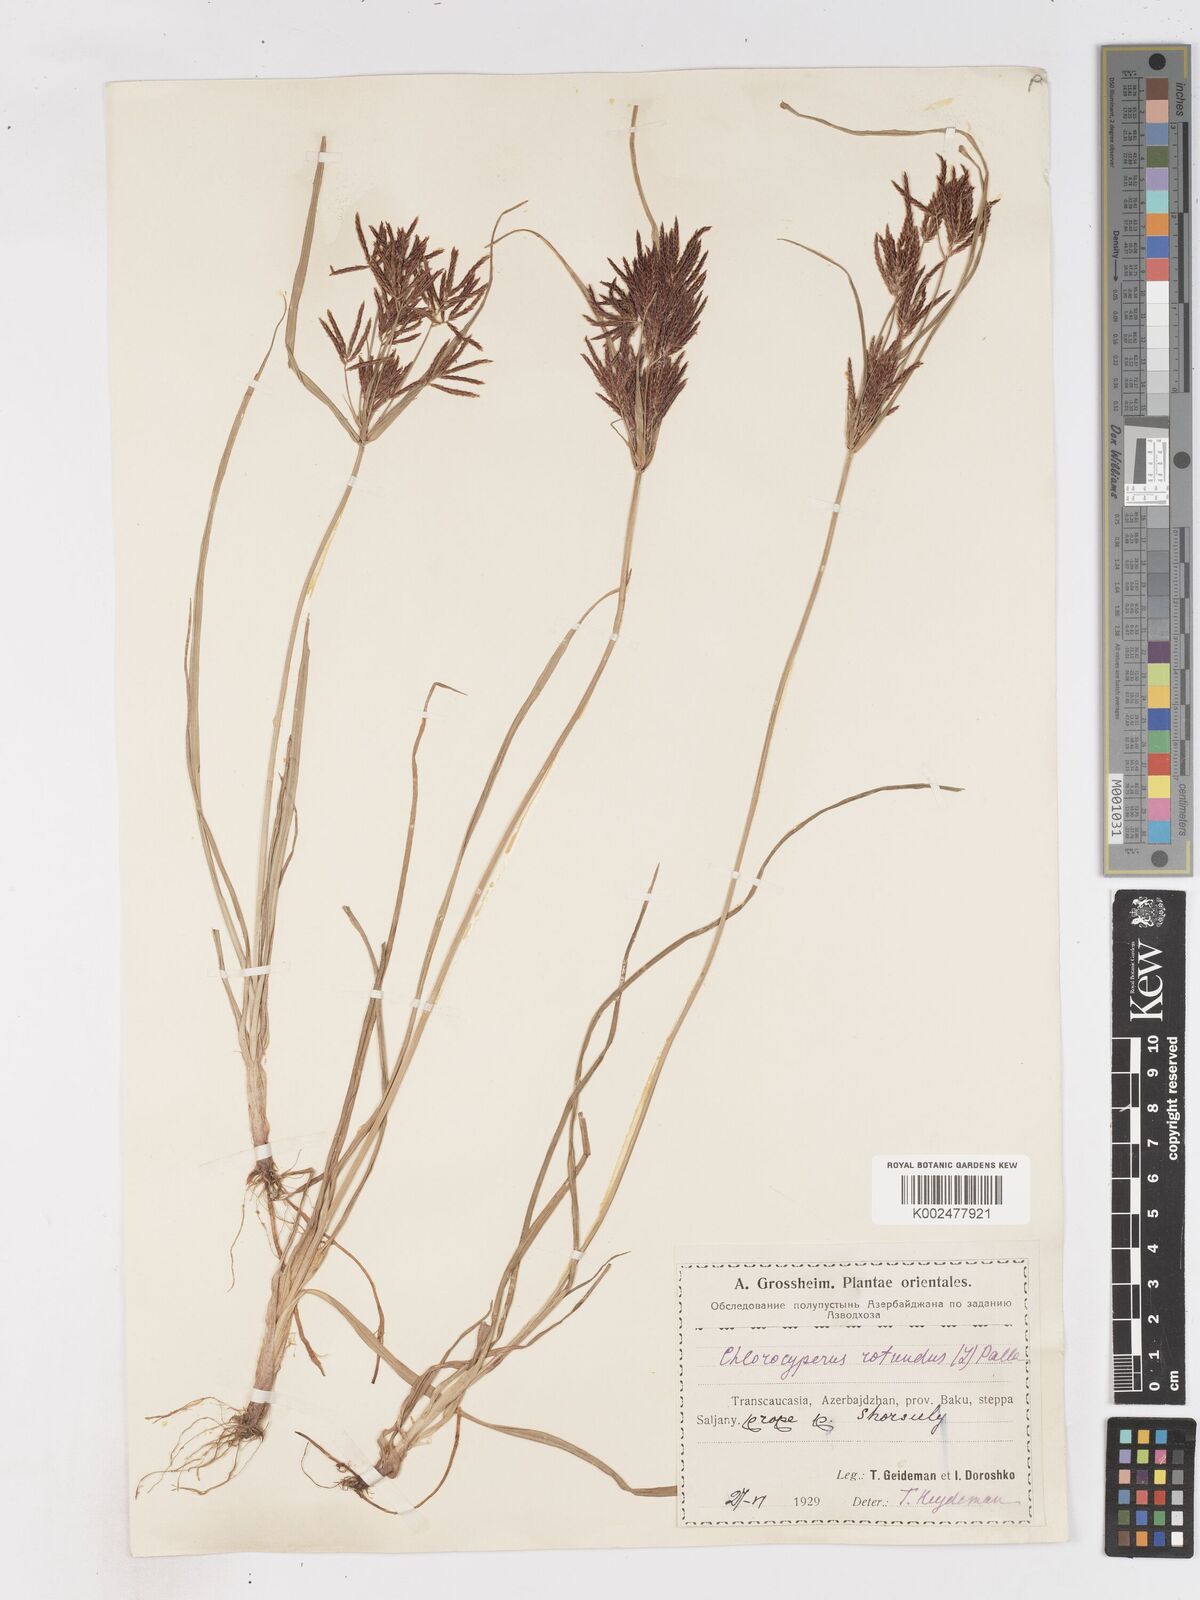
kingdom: Plantae
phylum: Tracheophyta
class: Liliopsida
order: Poales
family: Cyperaceae
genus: Cyperus
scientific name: Cyperus rotundus
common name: Nutgrass
